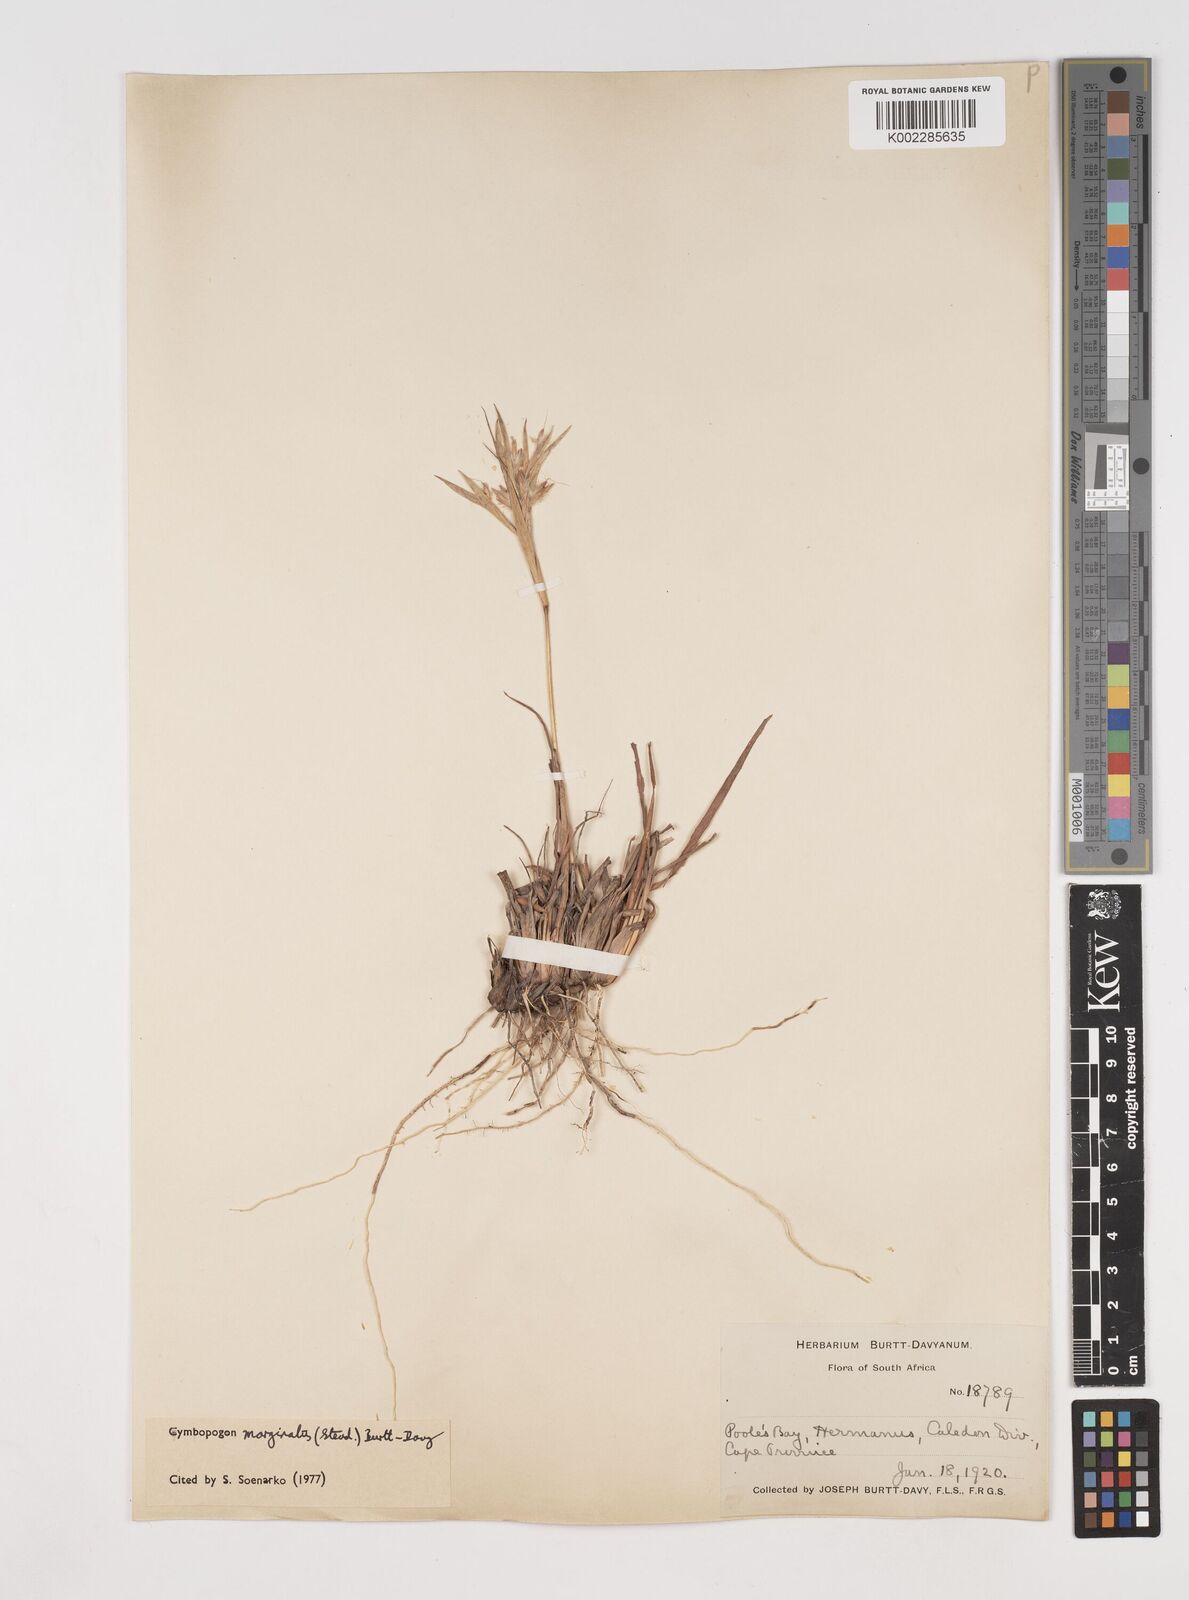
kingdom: Plantae
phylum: Tracheophyta
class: Liliopsida
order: Poales
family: Poaceae
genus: Cymbopogon
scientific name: Cymbopogon marginatus
